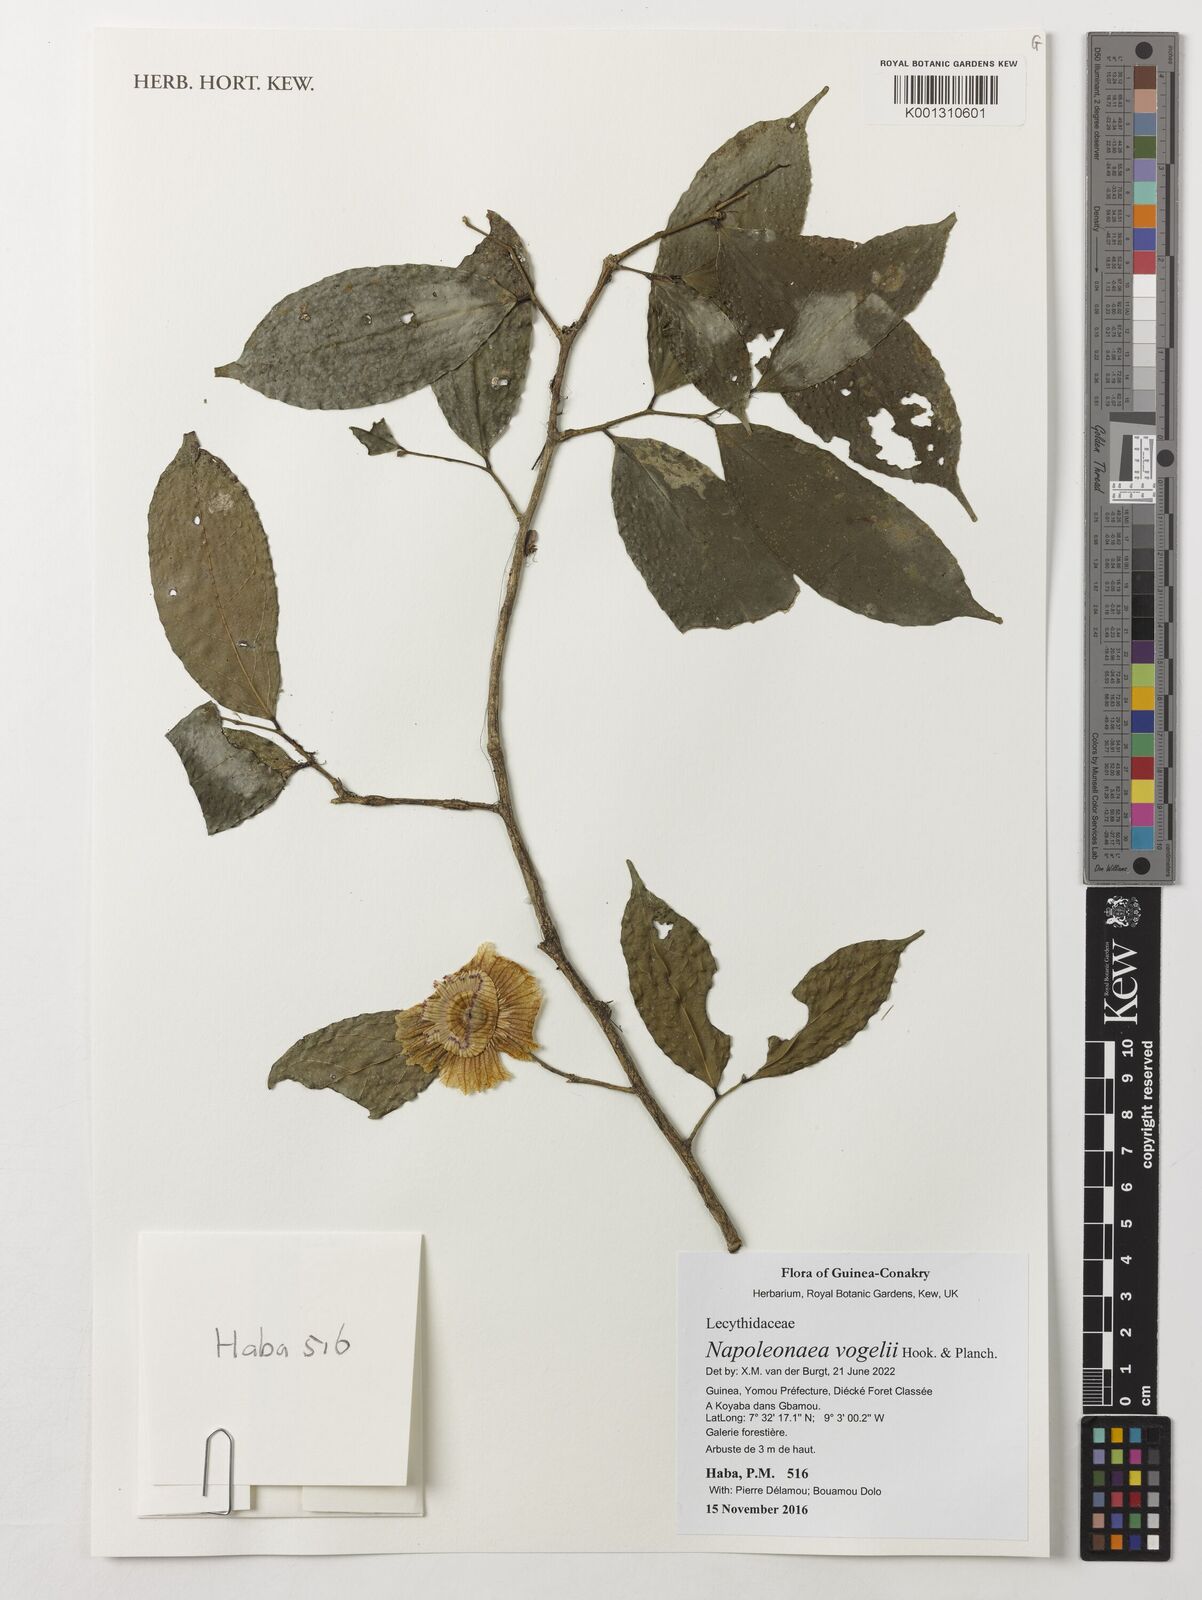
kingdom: Plantae
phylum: Tracheophyta
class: Magnoliopsida
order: Ericales
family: Lecythidaceae
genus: Napoleonaea
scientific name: Napoleonaea vogelii
